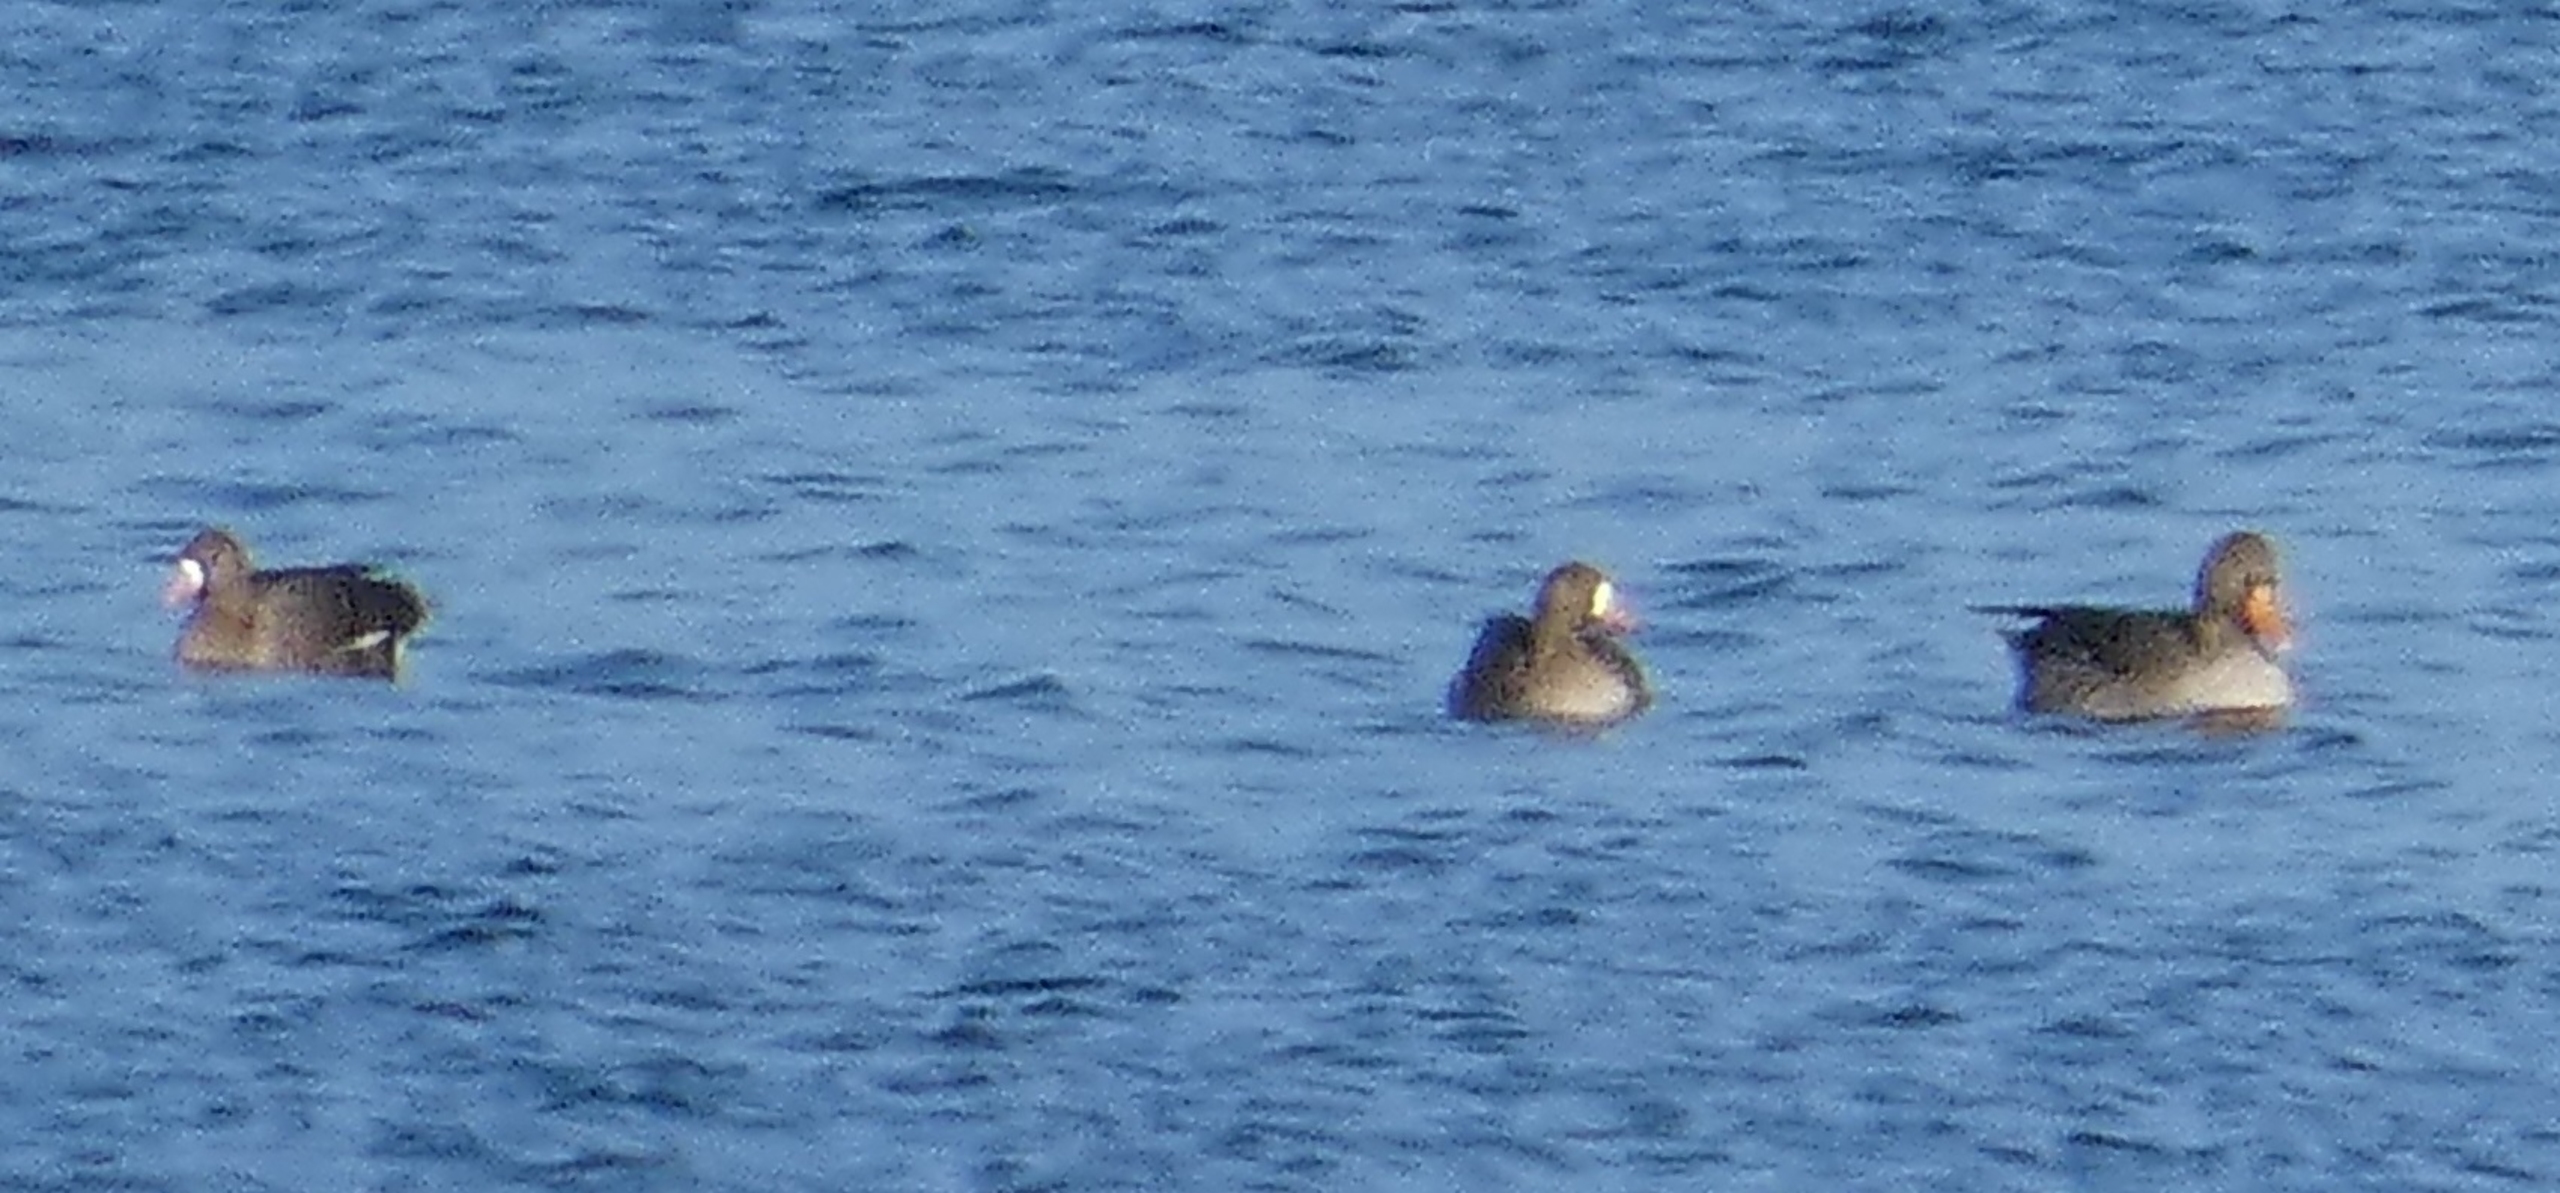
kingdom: Animalia
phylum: Chordata
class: Aves
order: Anseriformes
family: Anatidae
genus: Anser
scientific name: Anser albifrons
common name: Blisgås
